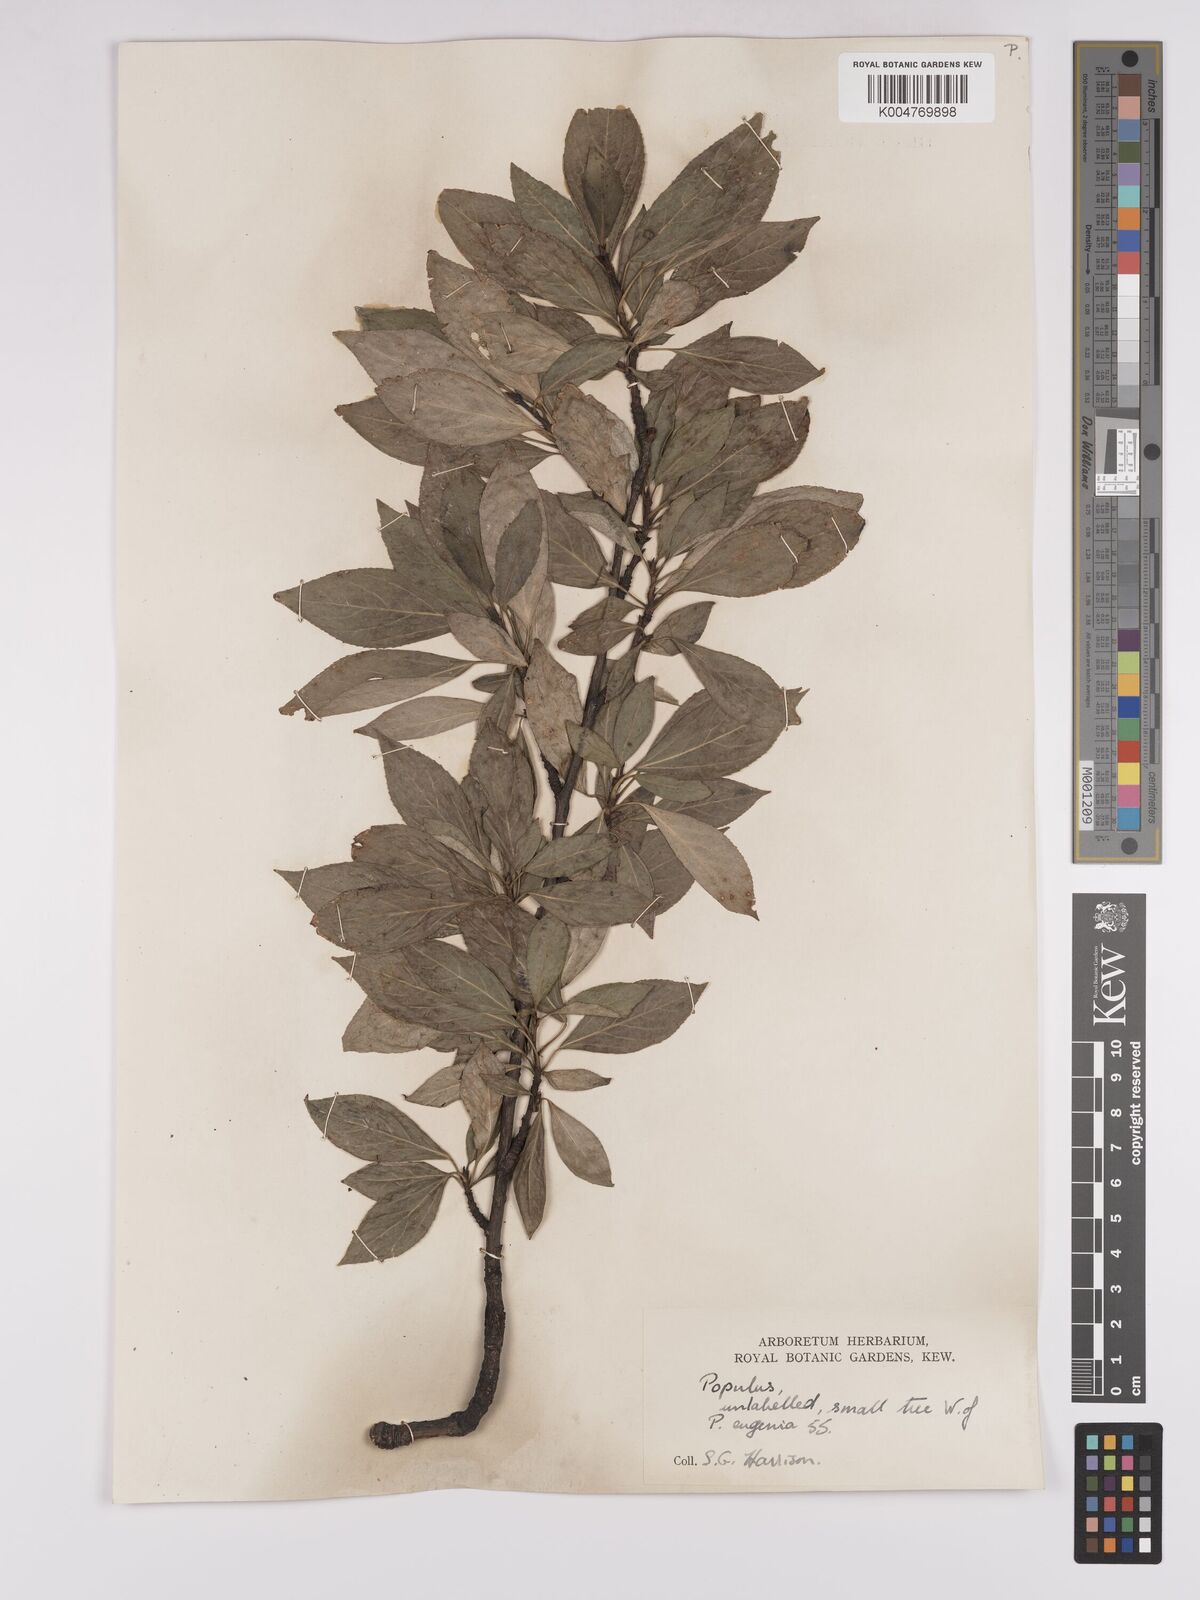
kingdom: Plantae
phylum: Tracheophyta
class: Magnoliopsida
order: Malpighiales
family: Salicaceae
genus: Populus
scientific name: Populus dubia
